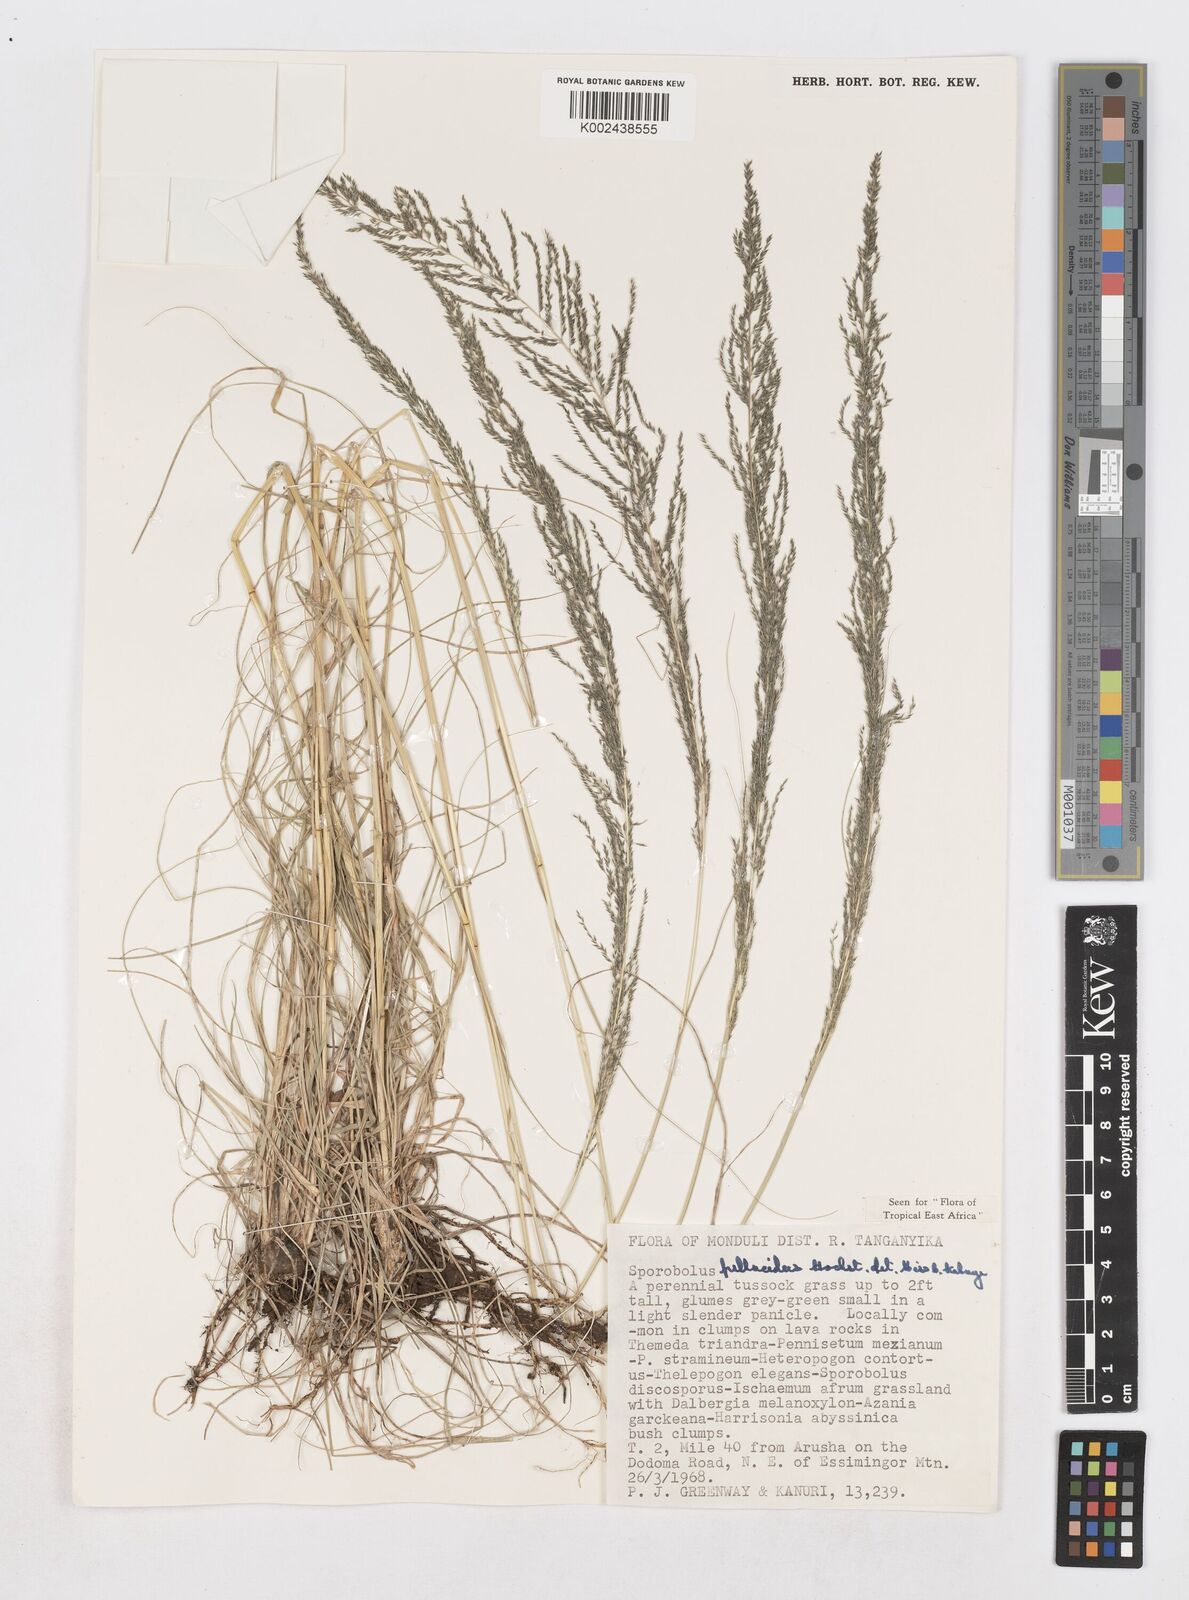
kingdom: Plantae
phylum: Tracheophyta
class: Liliopsida
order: Poales
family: Poaceae
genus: Sporobolus
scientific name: Sporobolus pellucidus
